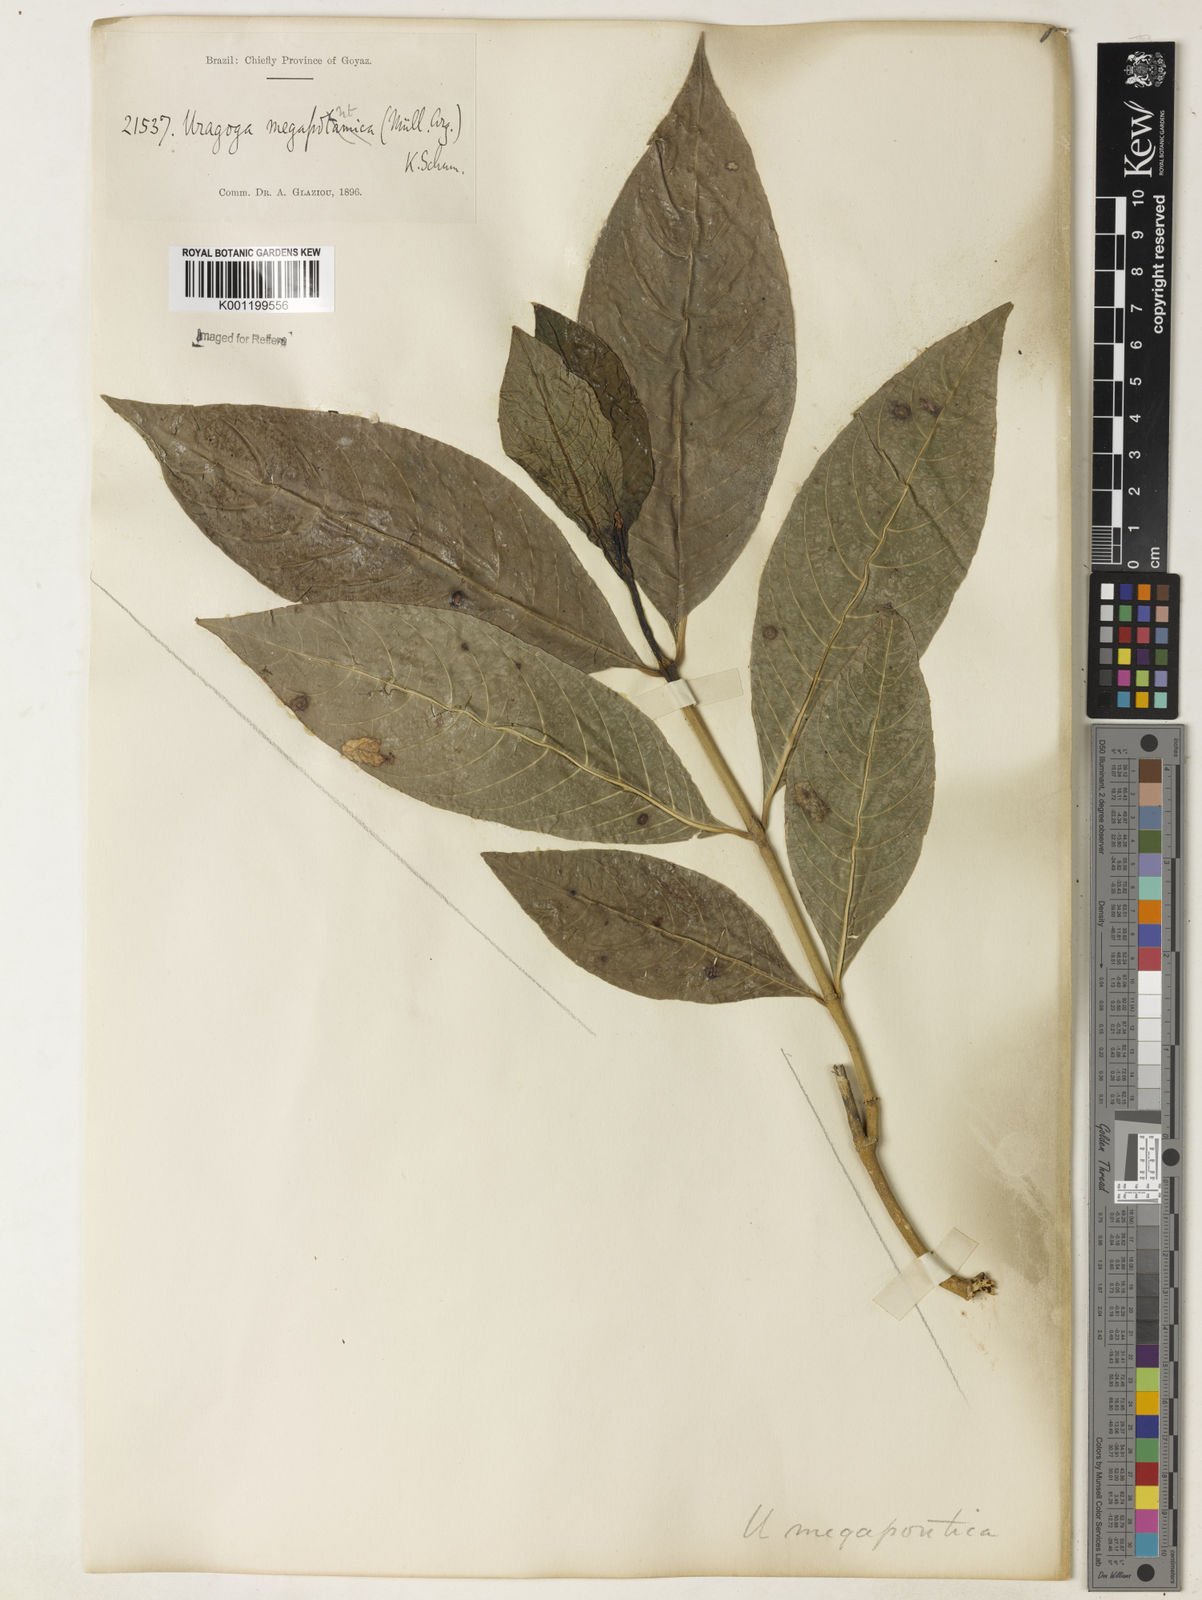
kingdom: Plantae
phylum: Tracheophyta
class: Magnoliopsida
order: Gentianales
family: Rubiaceae
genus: Psychotria
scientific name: Psychotria
